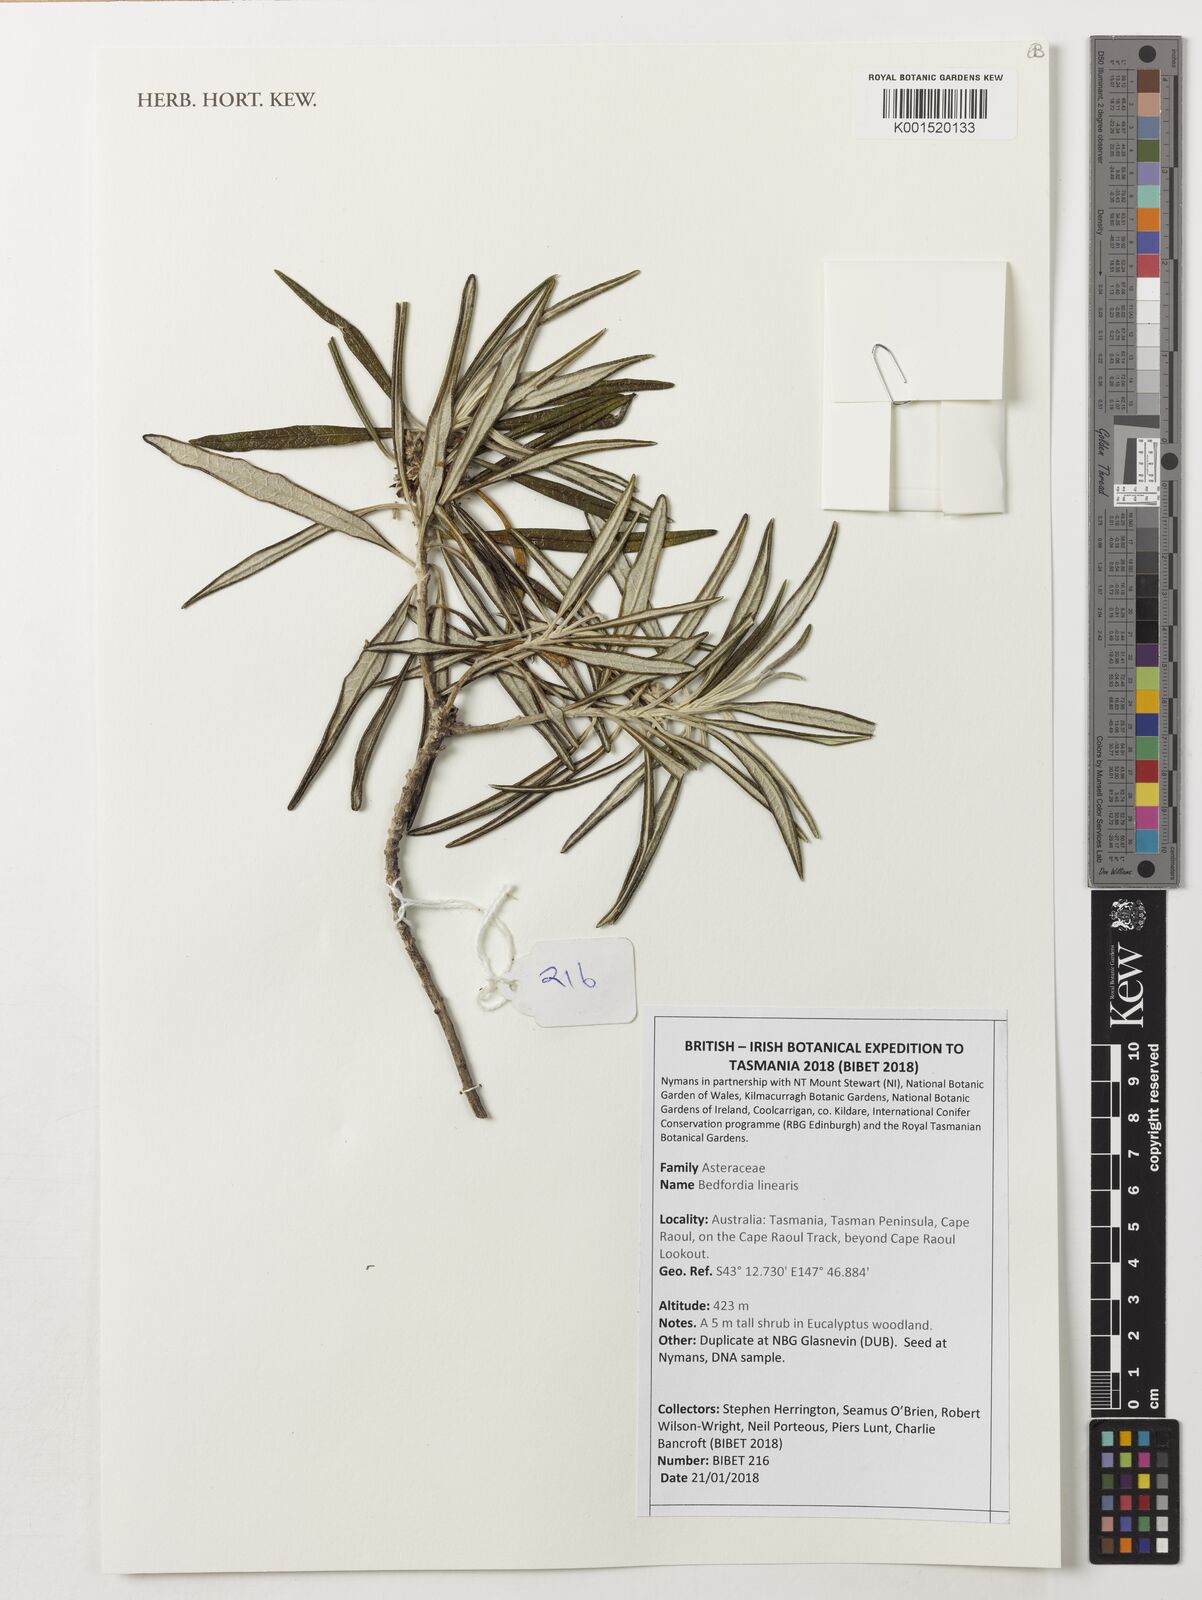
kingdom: Plantae
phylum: Tracheophyta
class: Magnoliopsida
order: Asterales
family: Asteraceae
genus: Bedfordia
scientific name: Bedfordia linearis
